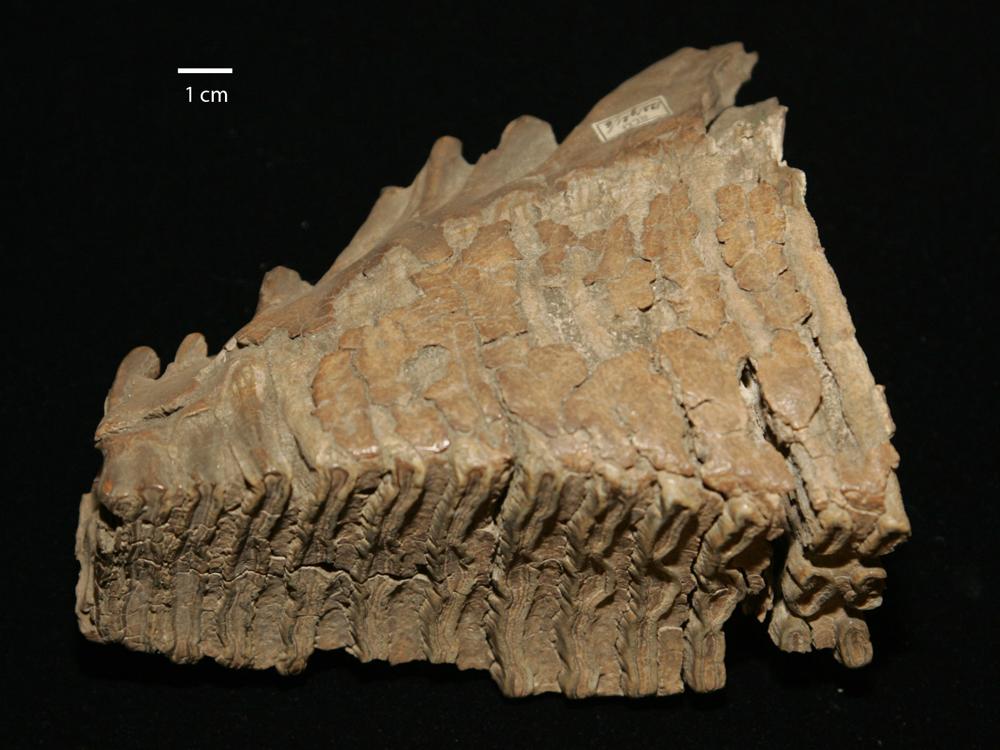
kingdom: Animalia
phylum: Chordata
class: Mammalia
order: Proboscidea
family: Elephantidae
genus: Mammuthus
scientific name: Mammuthus primigenius
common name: Wooly mammoth
